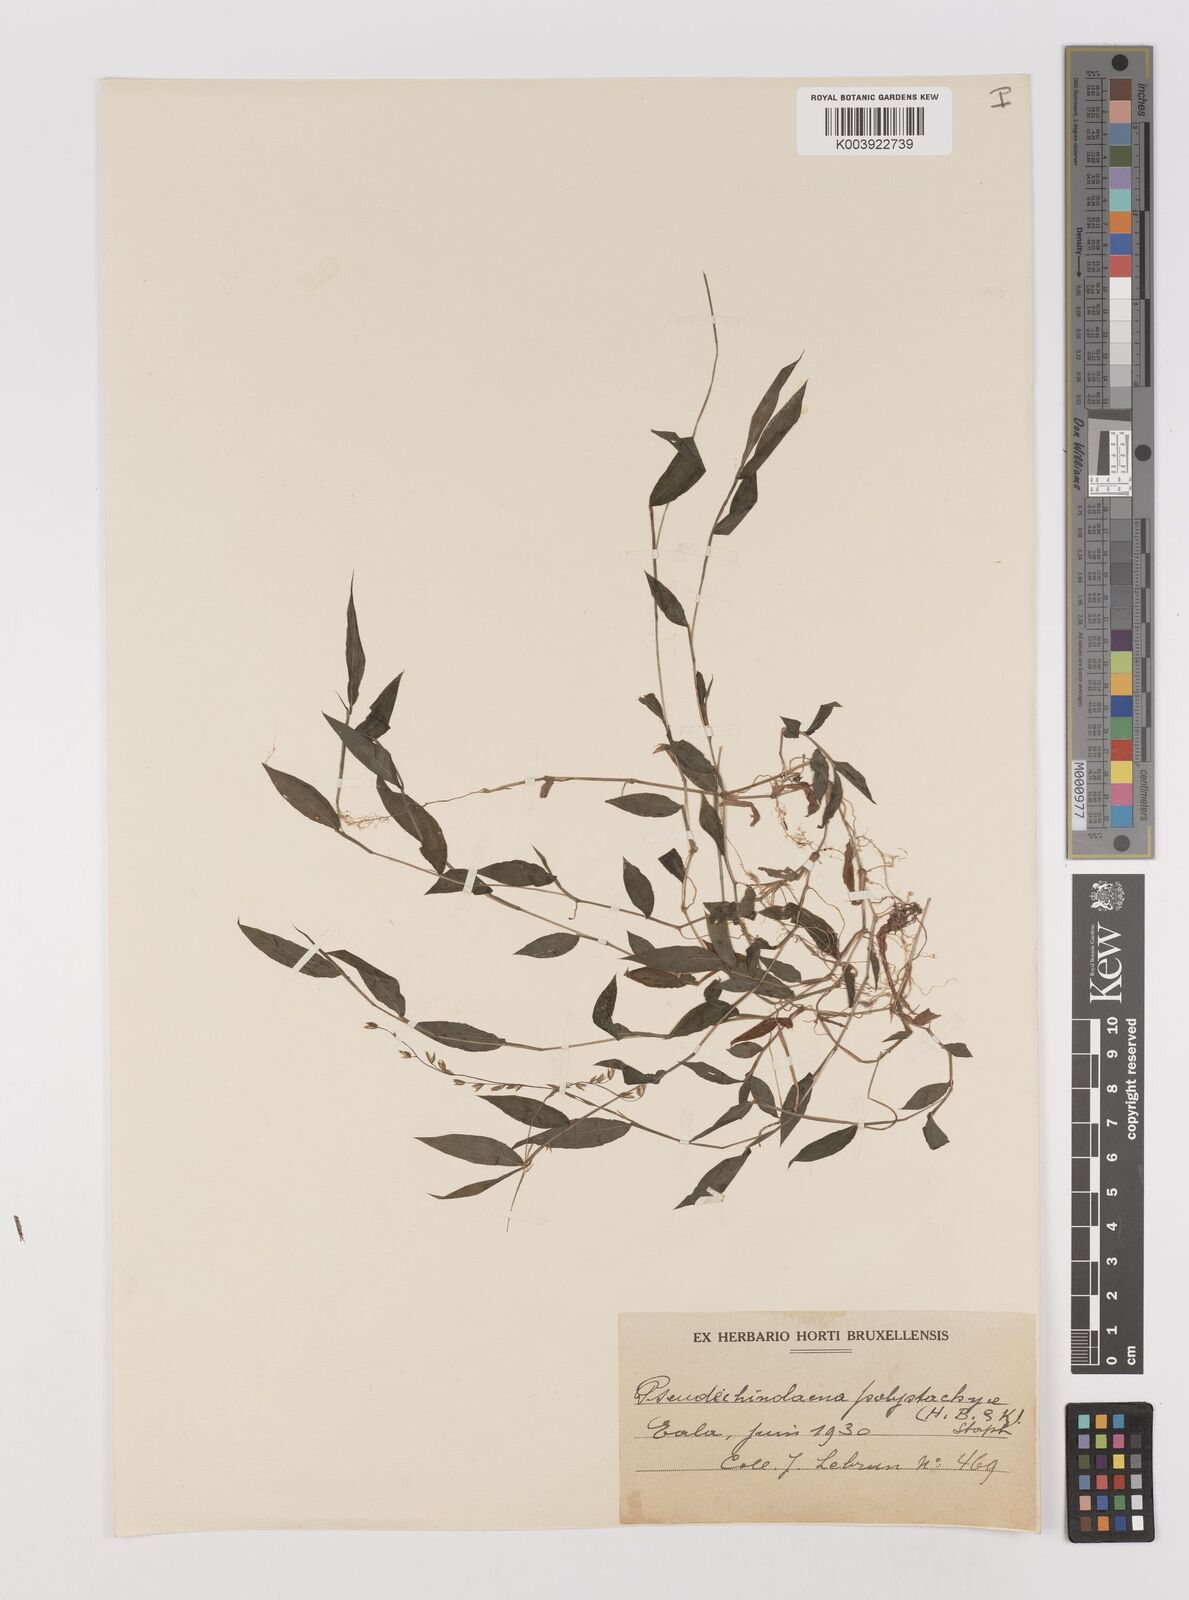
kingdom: Plantae
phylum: Tracheophyta
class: Liliopsida
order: Poales
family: Poaceae
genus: Pseudechinolaena
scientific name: Pseudechinolaena polystachya
